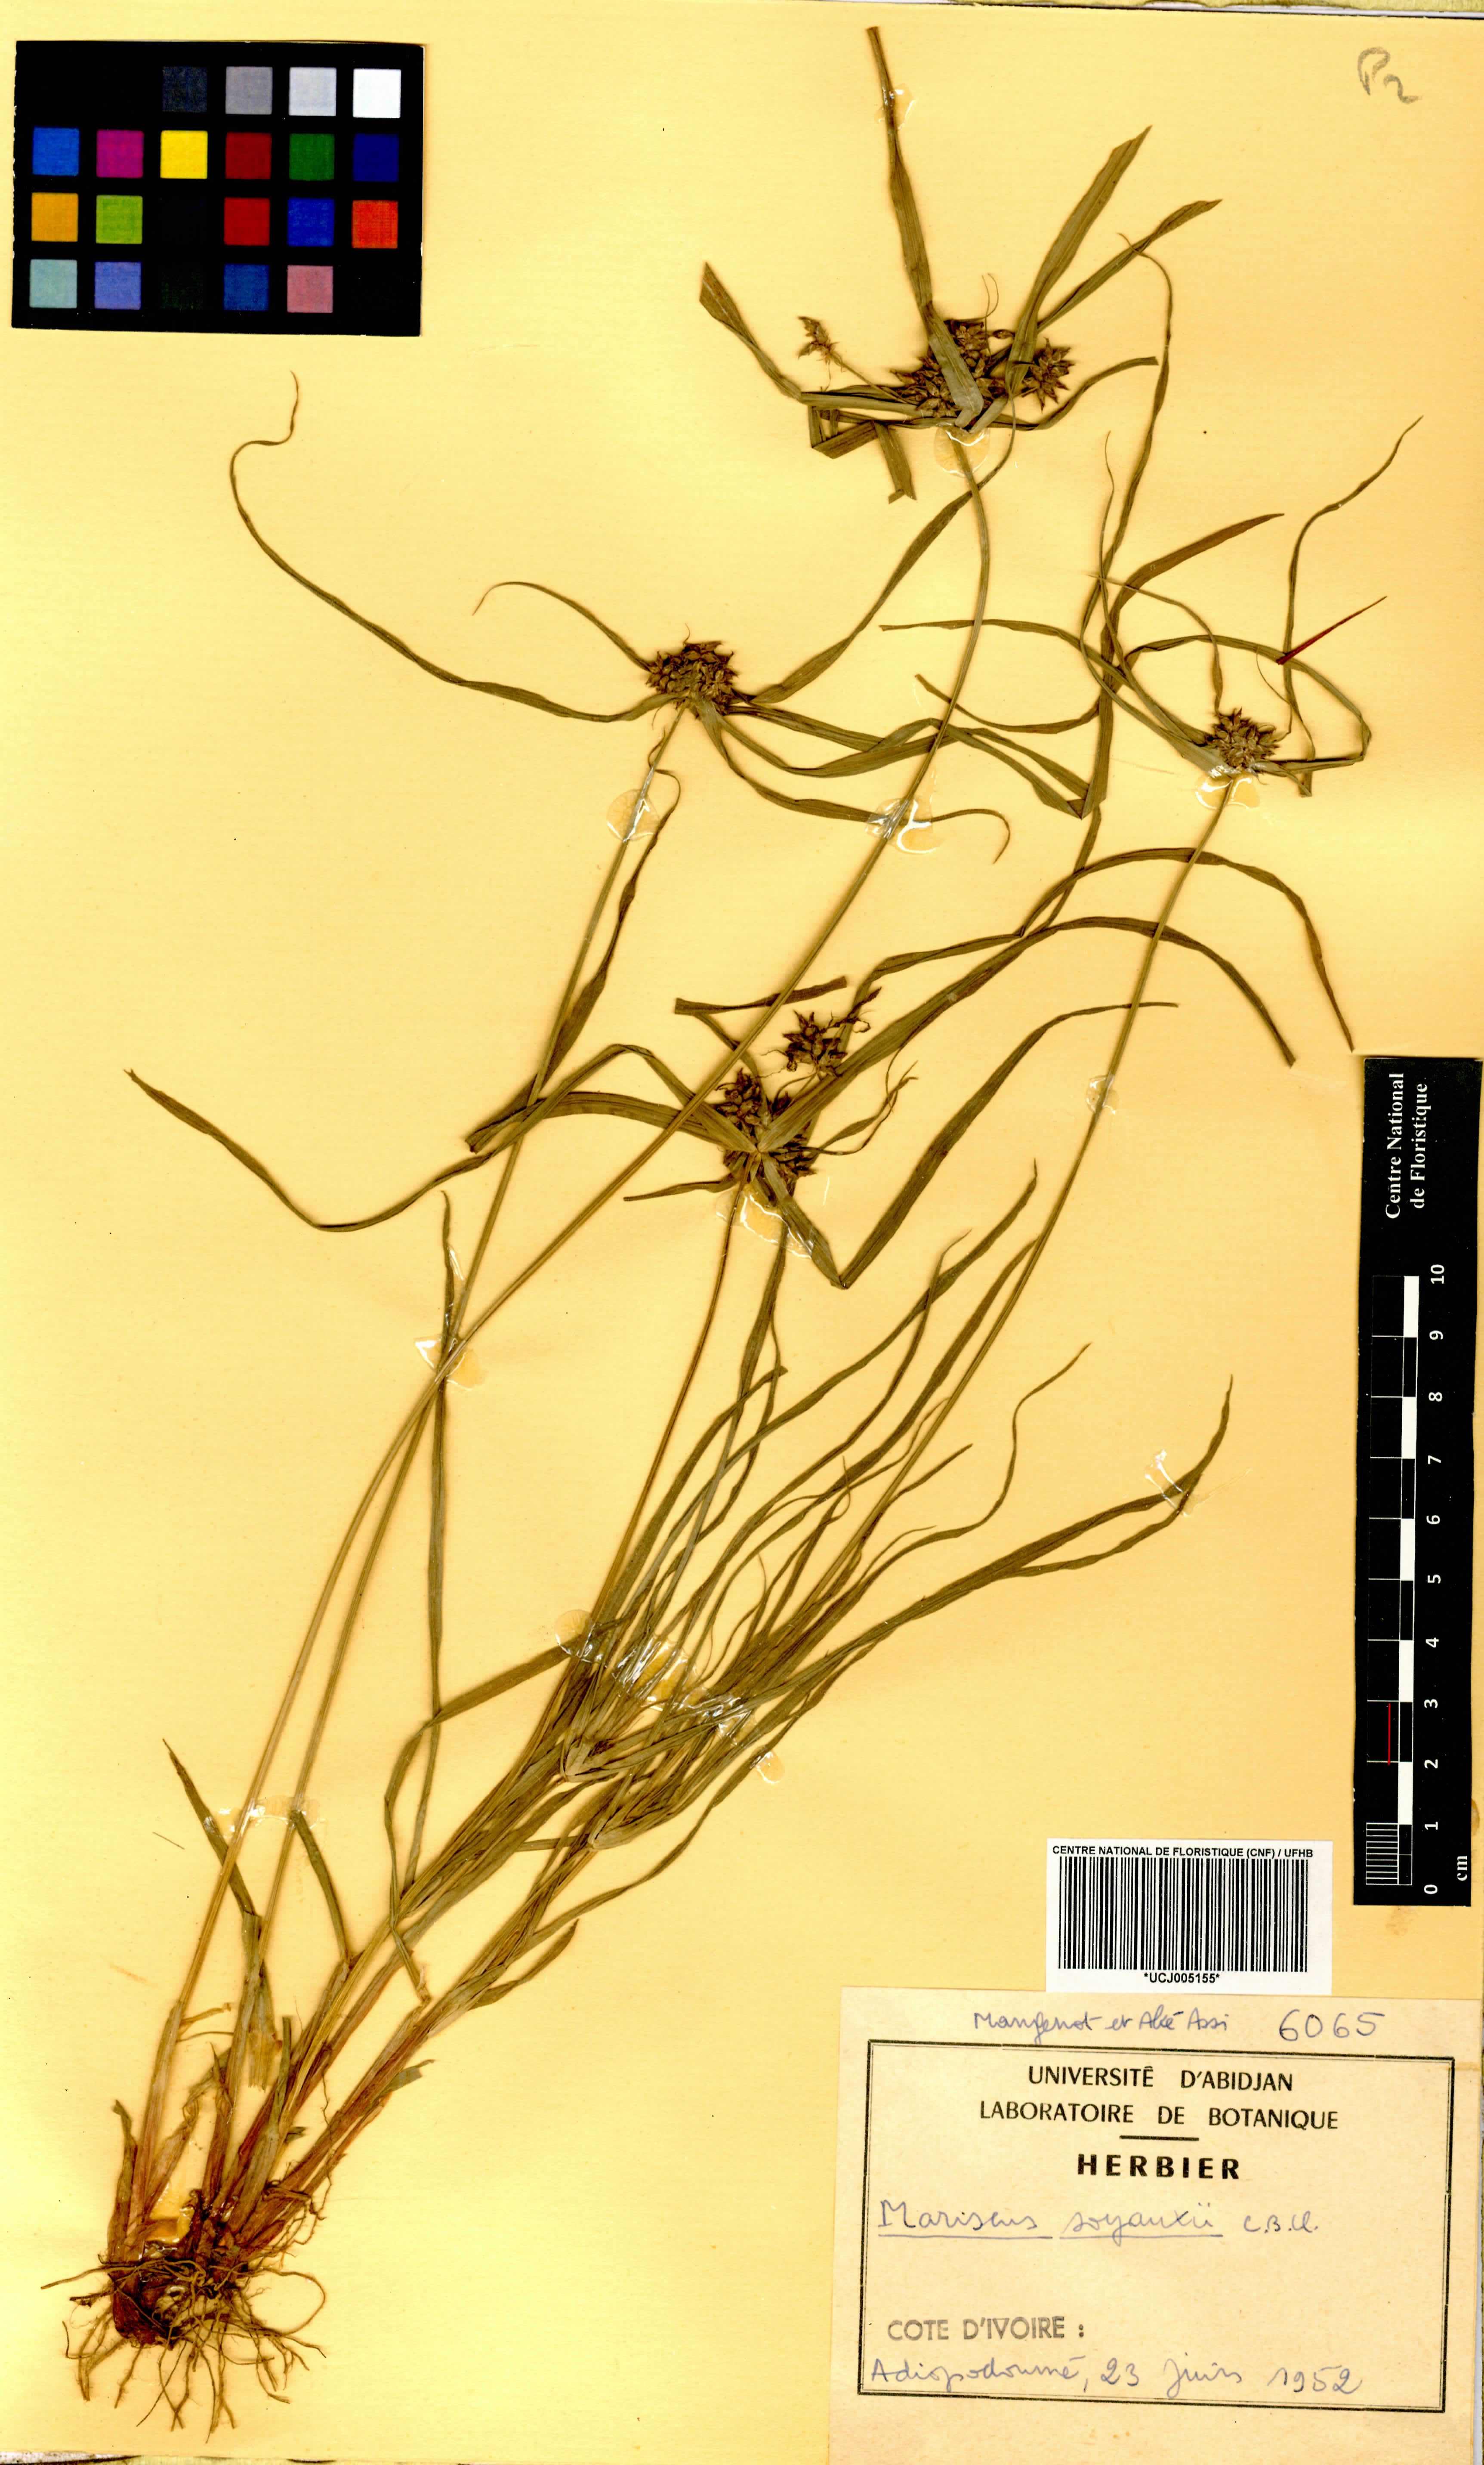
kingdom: Plantae
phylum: Tracheophyta
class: Liliopsida
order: Poales
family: Cyperaceae
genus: Cyperus
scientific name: Cyperus soyauxii
